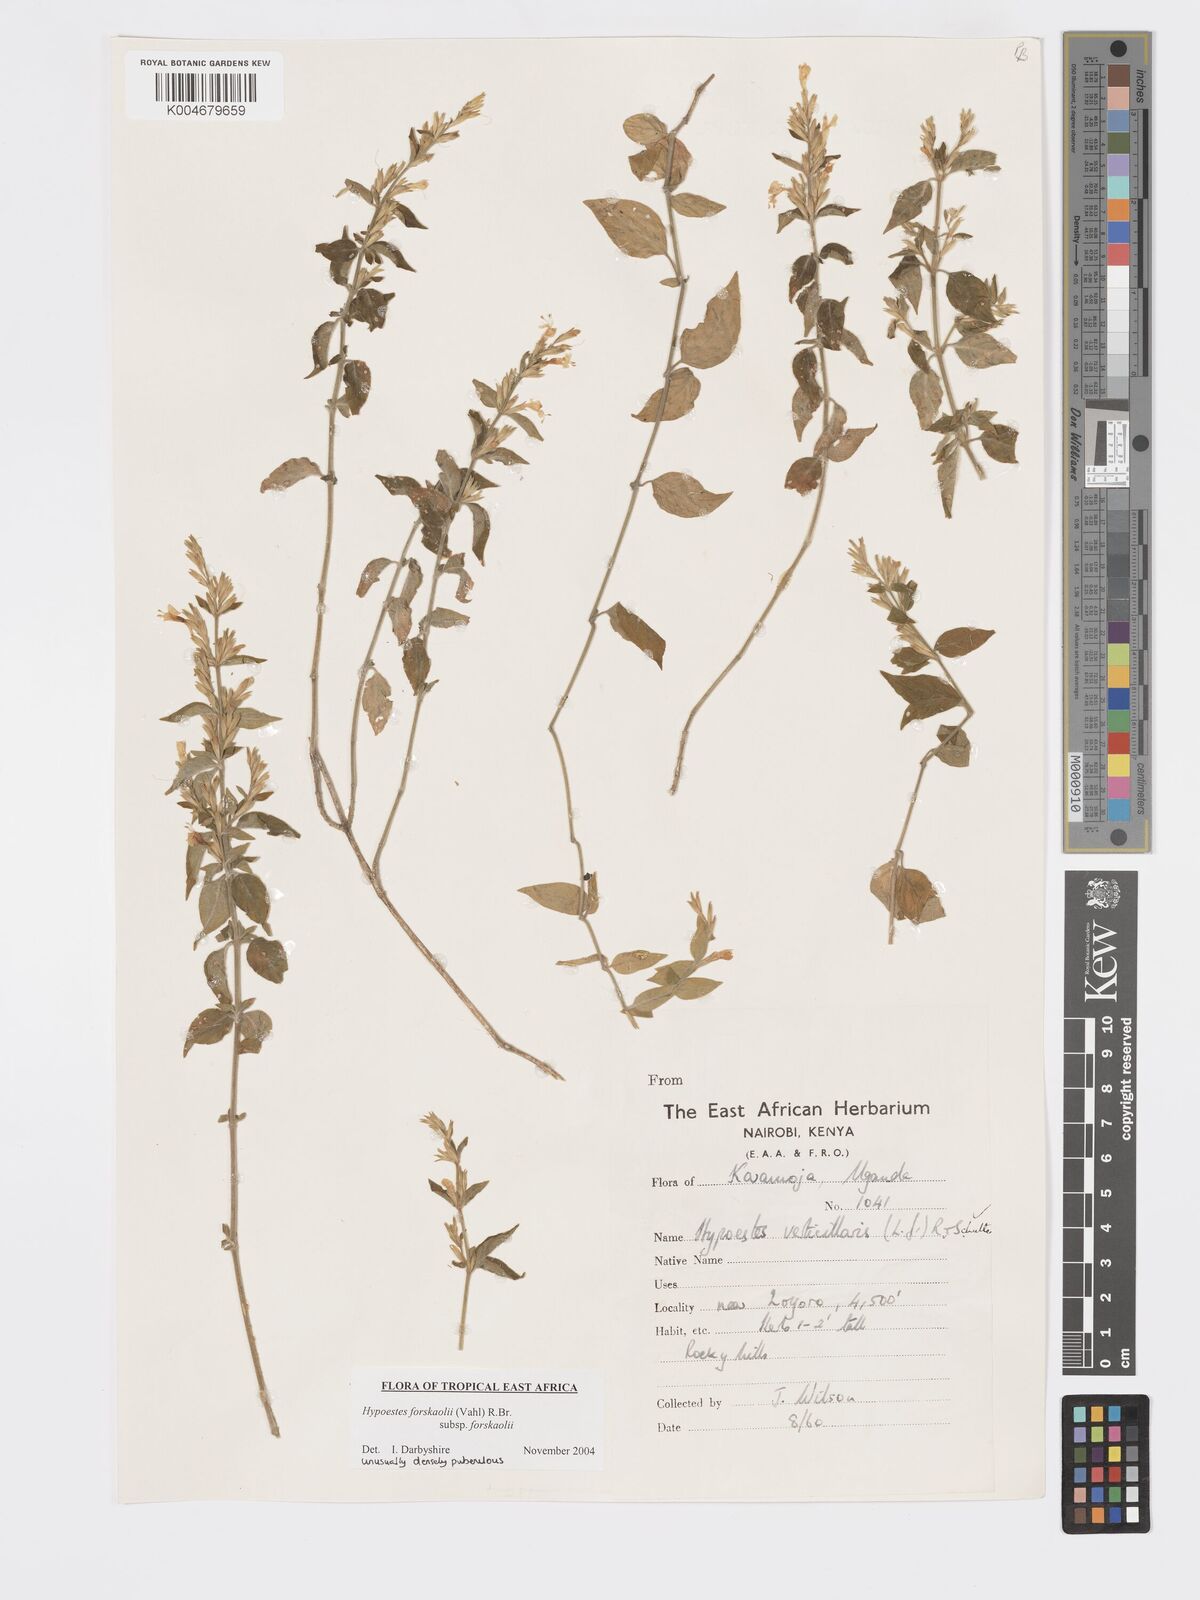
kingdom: Plantae
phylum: Tracheophyta
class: Magnoliopsida
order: Lamiales
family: Acanthaceae
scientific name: Acanthaceae
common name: Acanthaceae
